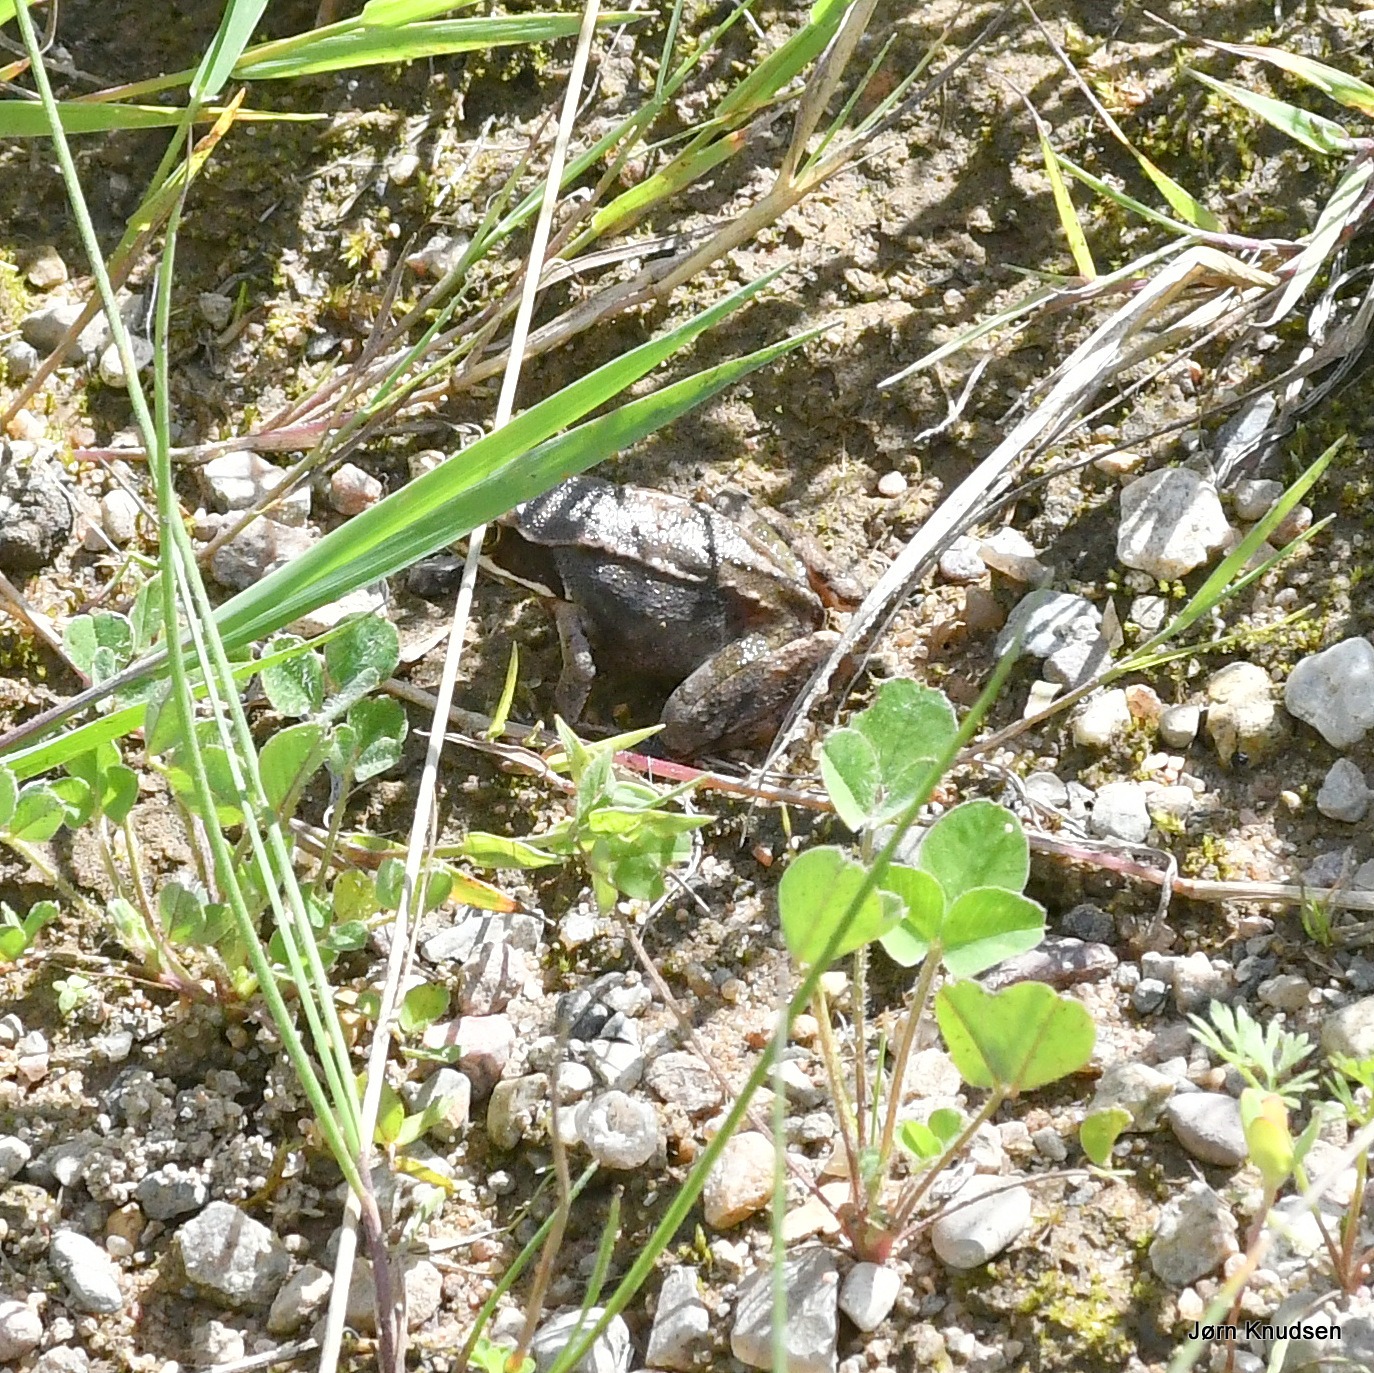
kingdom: Animalia
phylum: Chordata
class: Amphibia
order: Anura
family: Ranidae
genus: Rana
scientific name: Rana temporaria
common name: Butsnudet frø
